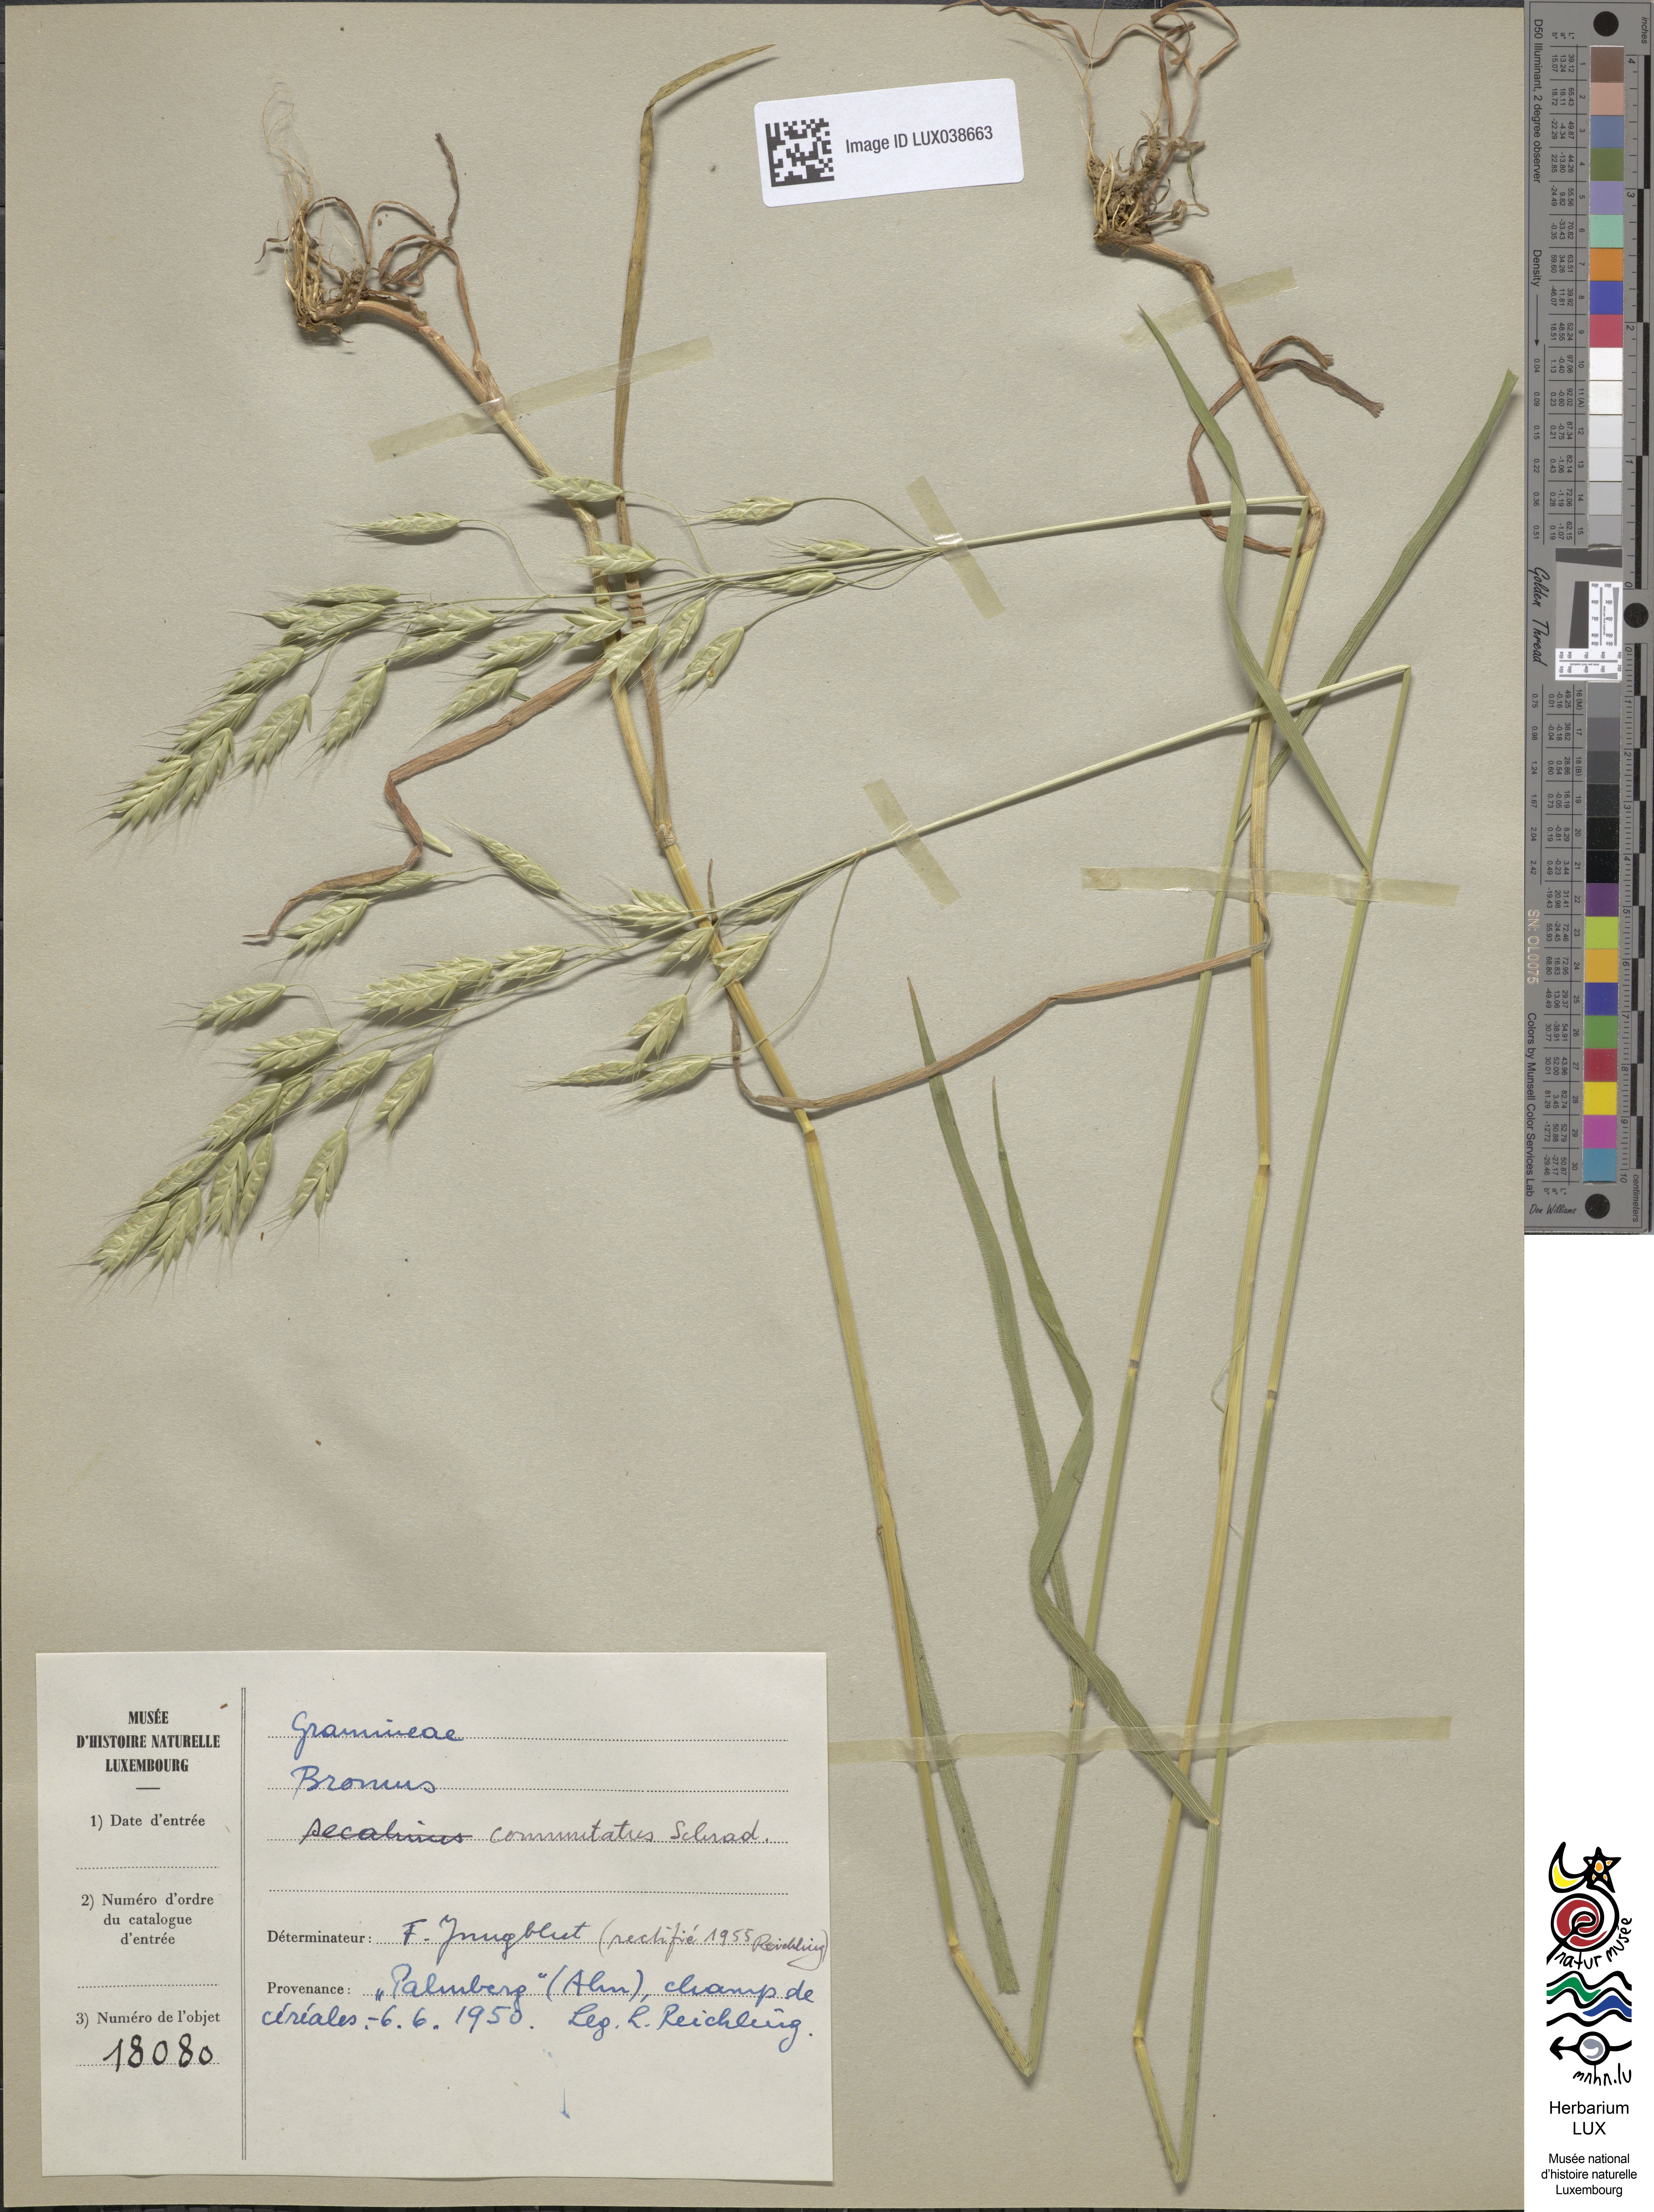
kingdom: Plantae
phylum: Tracheophyta
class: Liliopsida
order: Poales
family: Poaceae
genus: Bromus
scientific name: Bromus secalinus
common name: Rye brome
